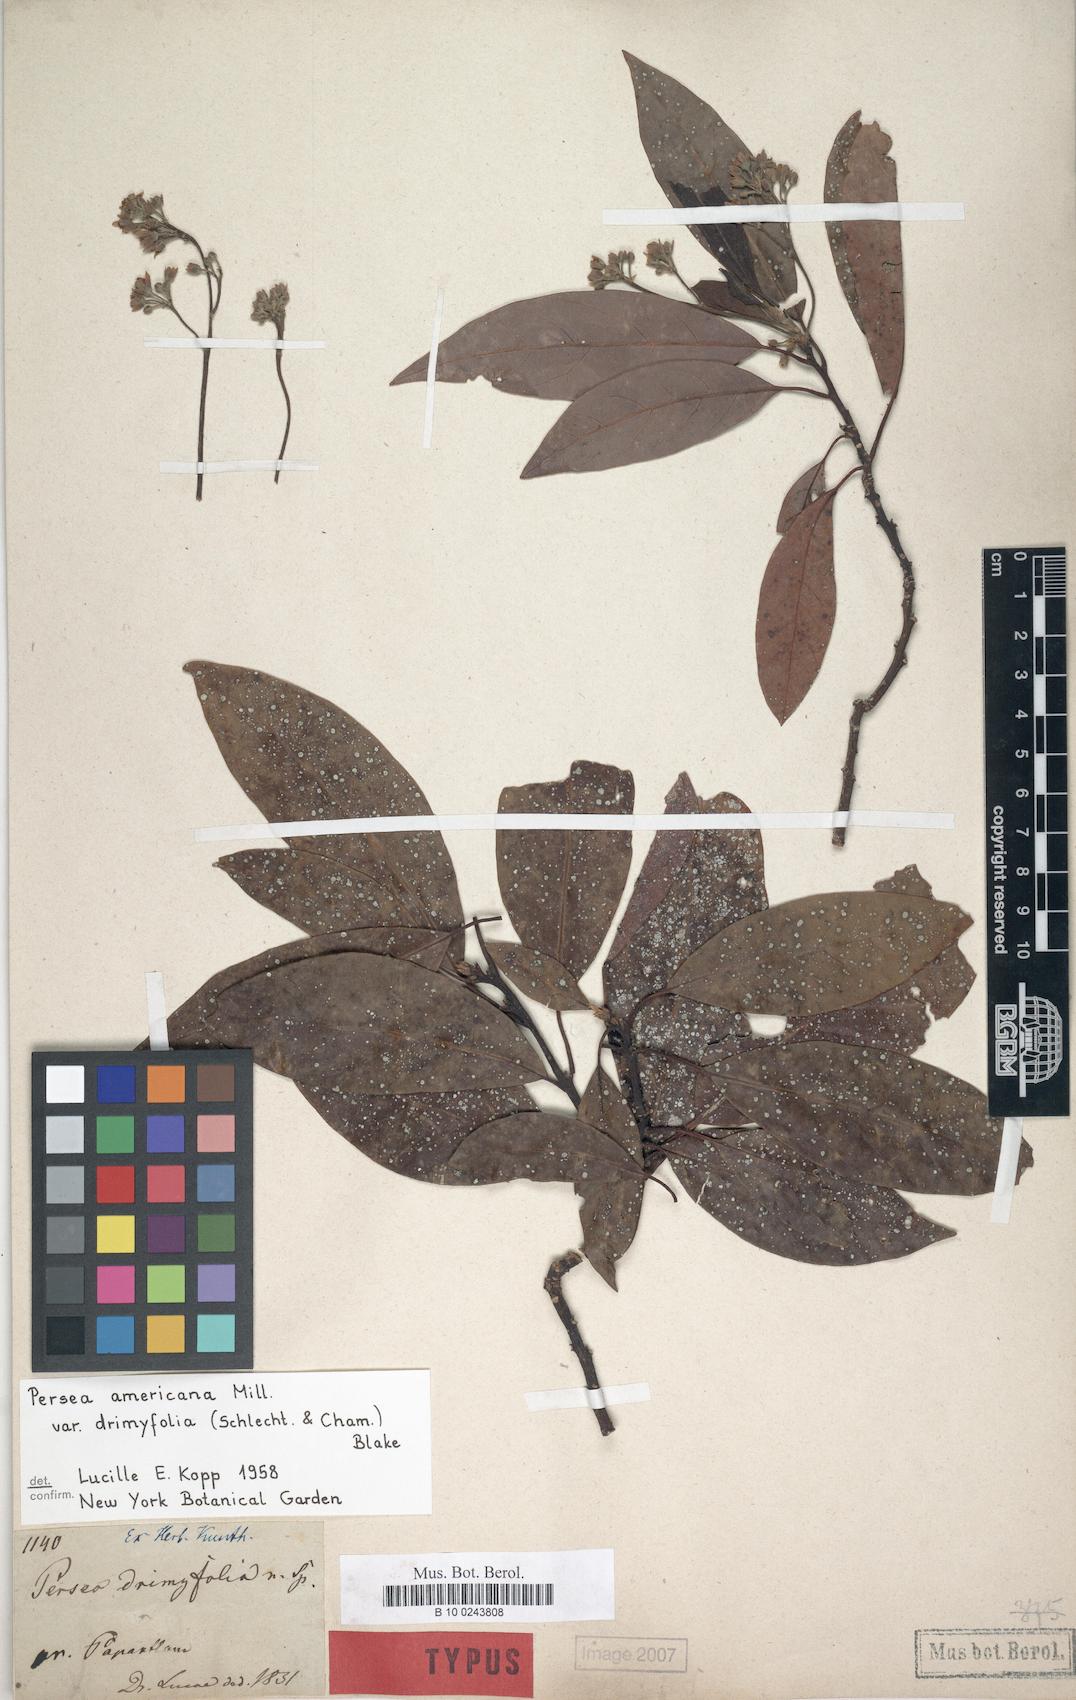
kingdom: Plantae
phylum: Tracheophyta
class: Magnoliopsida
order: Laurales
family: Lauraceae
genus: Persea
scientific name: Persea americana
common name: Avocado
